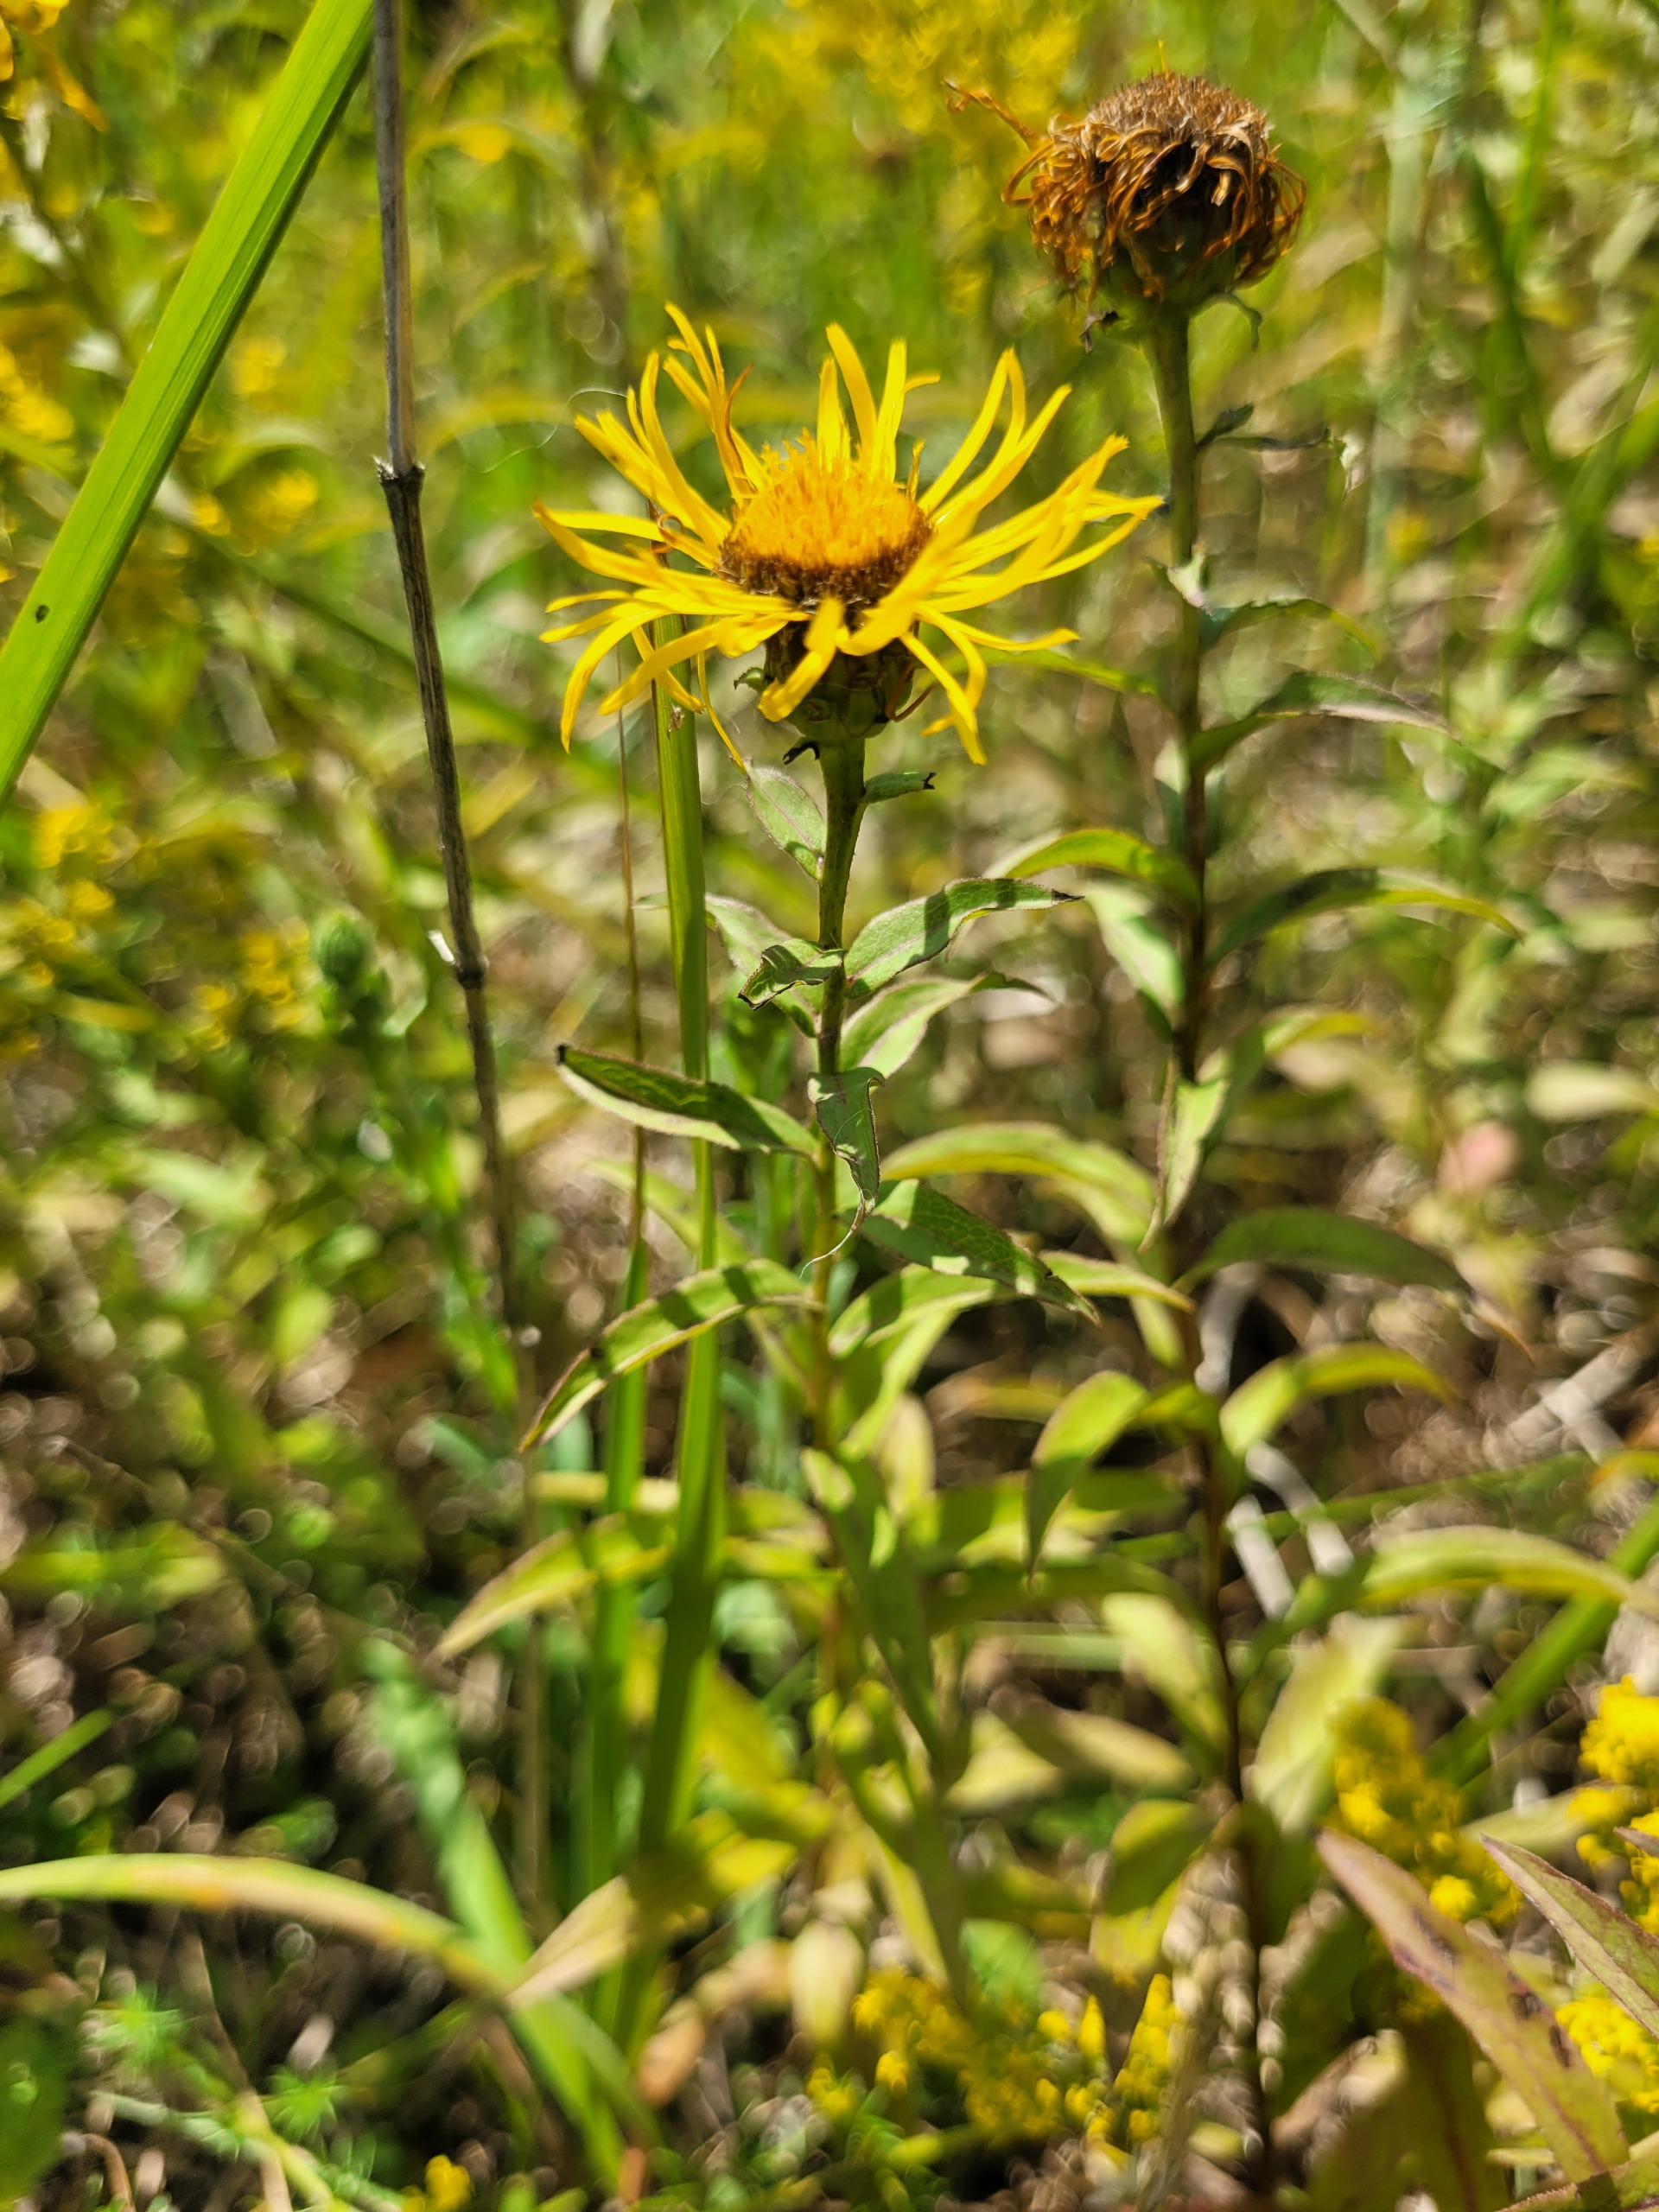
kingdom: Plantae
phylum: Tracheophyta
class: Magnoliopsida
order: Asterales
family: Asteraceae
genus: Pentanema
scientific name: Pentanema salicinum
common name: Pile-alant
